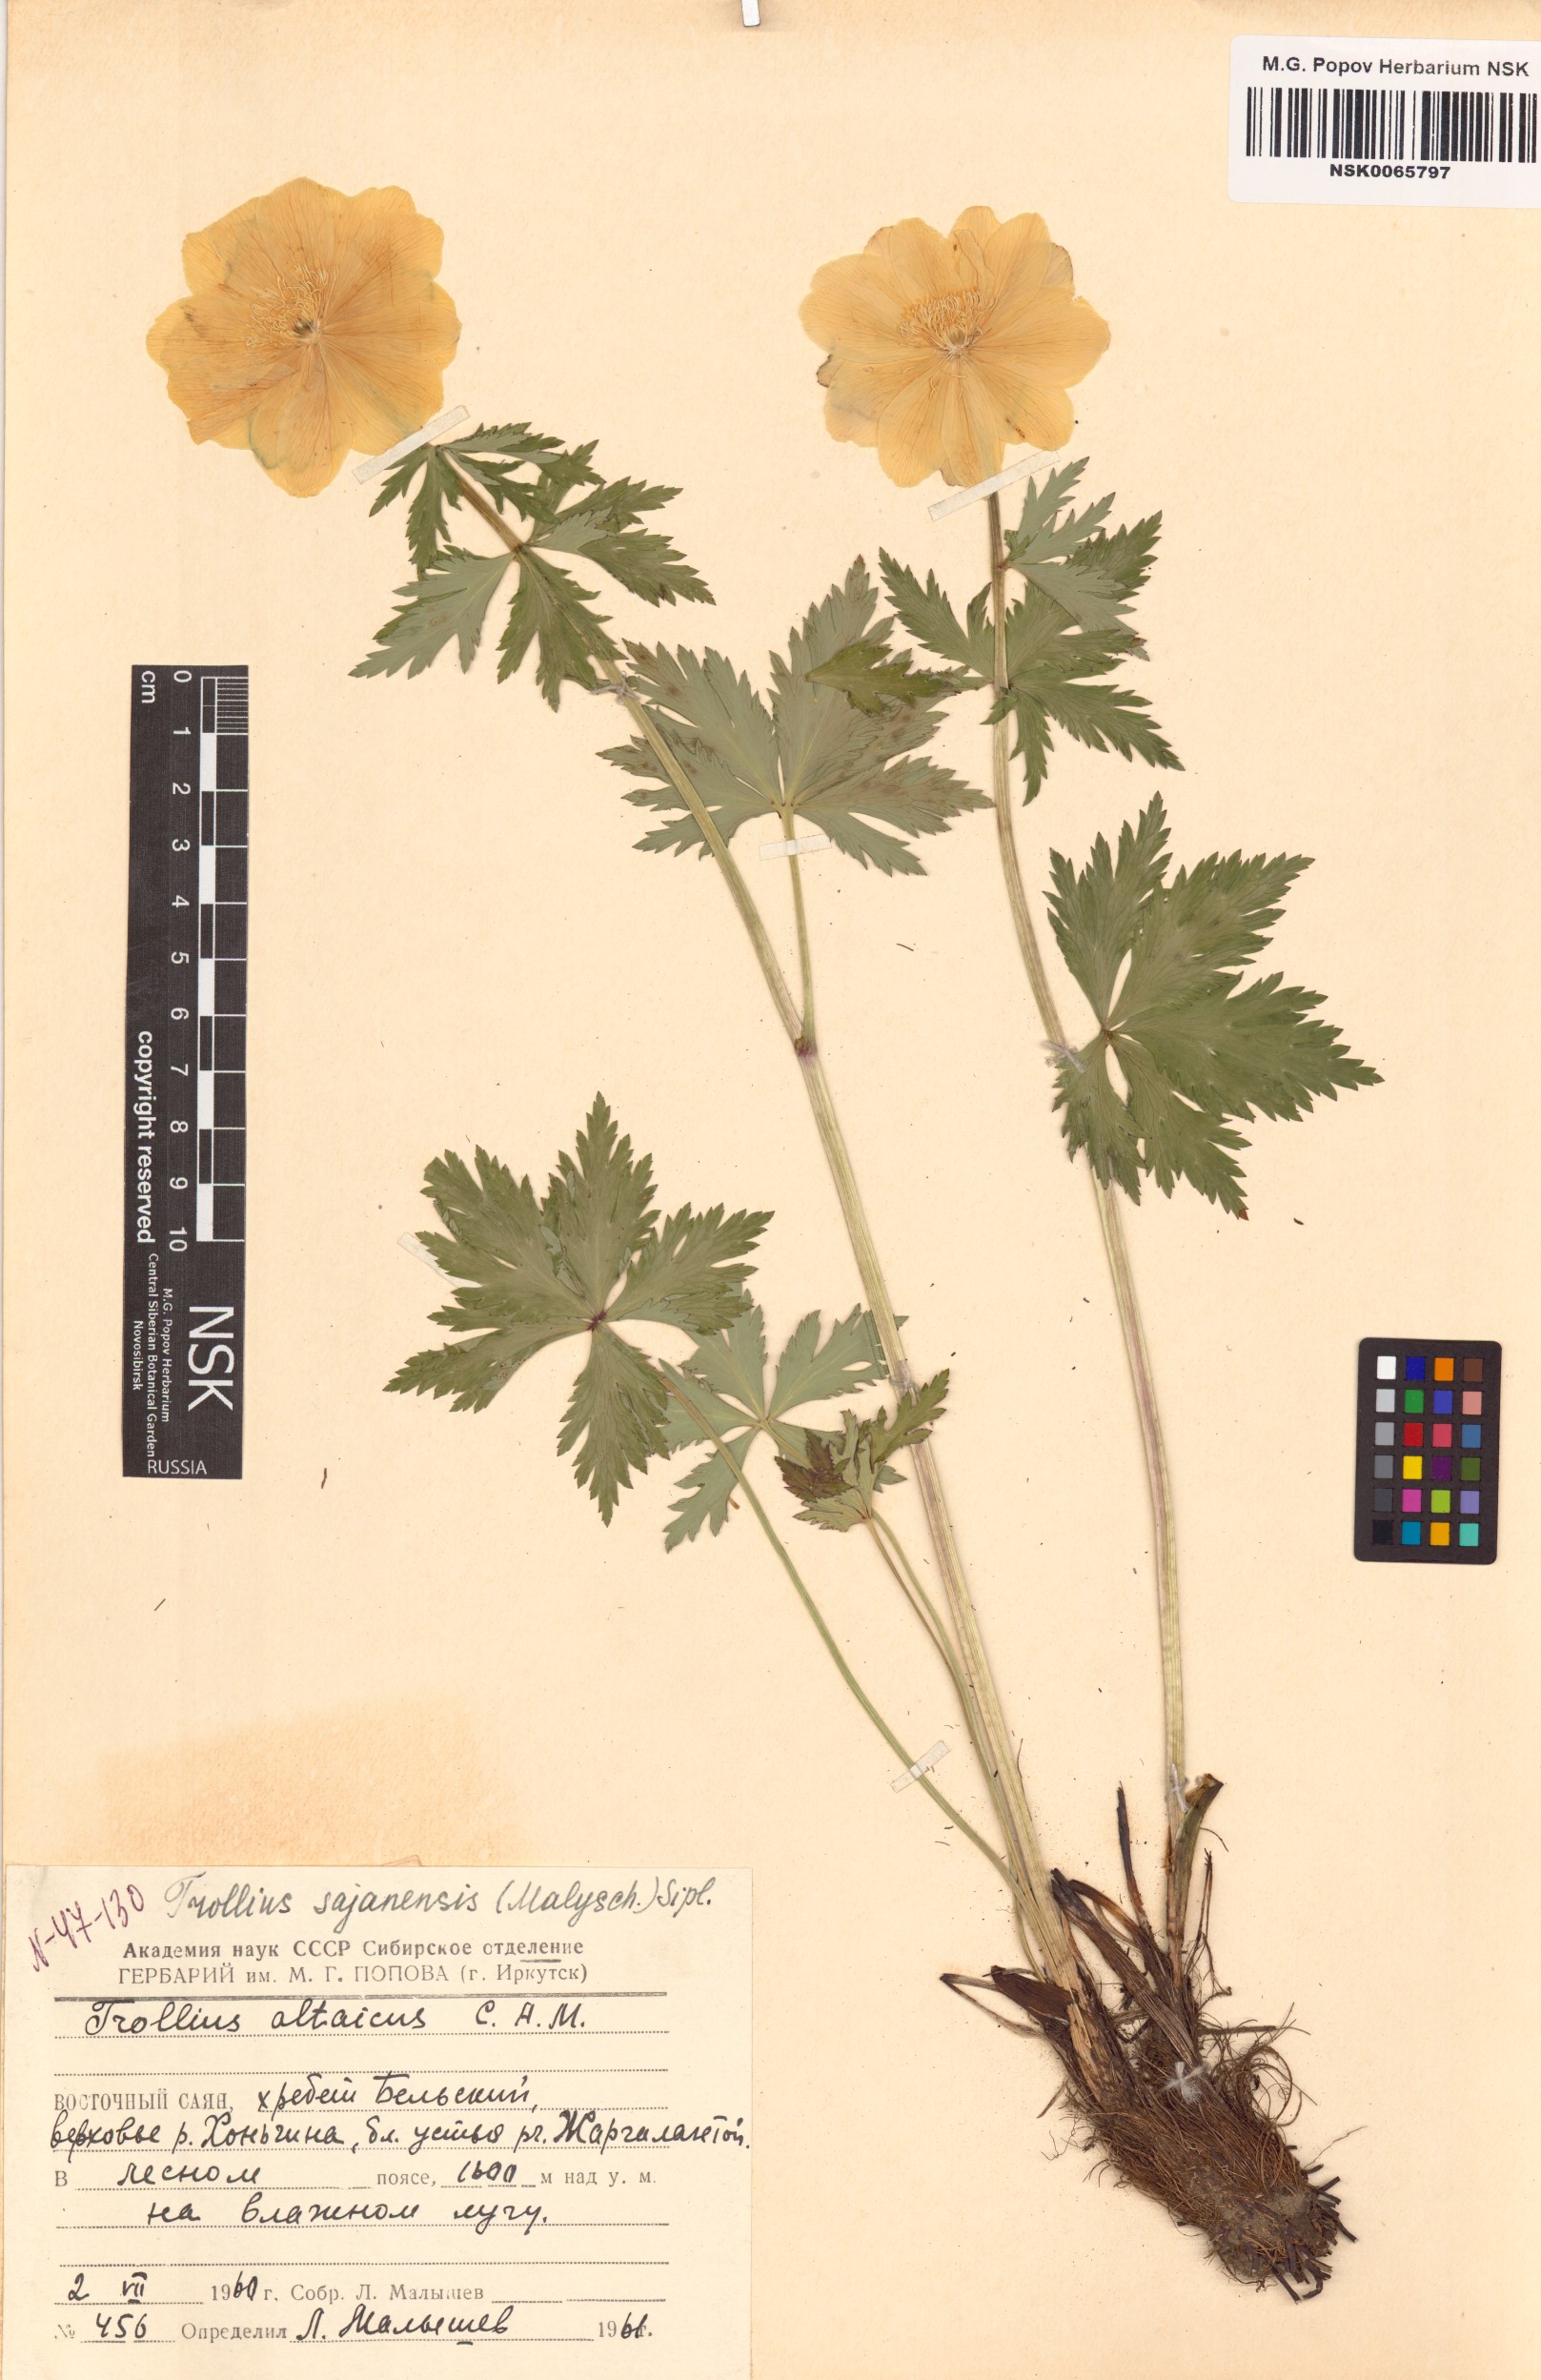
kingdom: Plantae
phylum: Tracheophyta
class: Magnoliopsida
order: Ranunculales
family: Ranunculaceae
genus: Trollius
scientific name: Trollius altaicus
